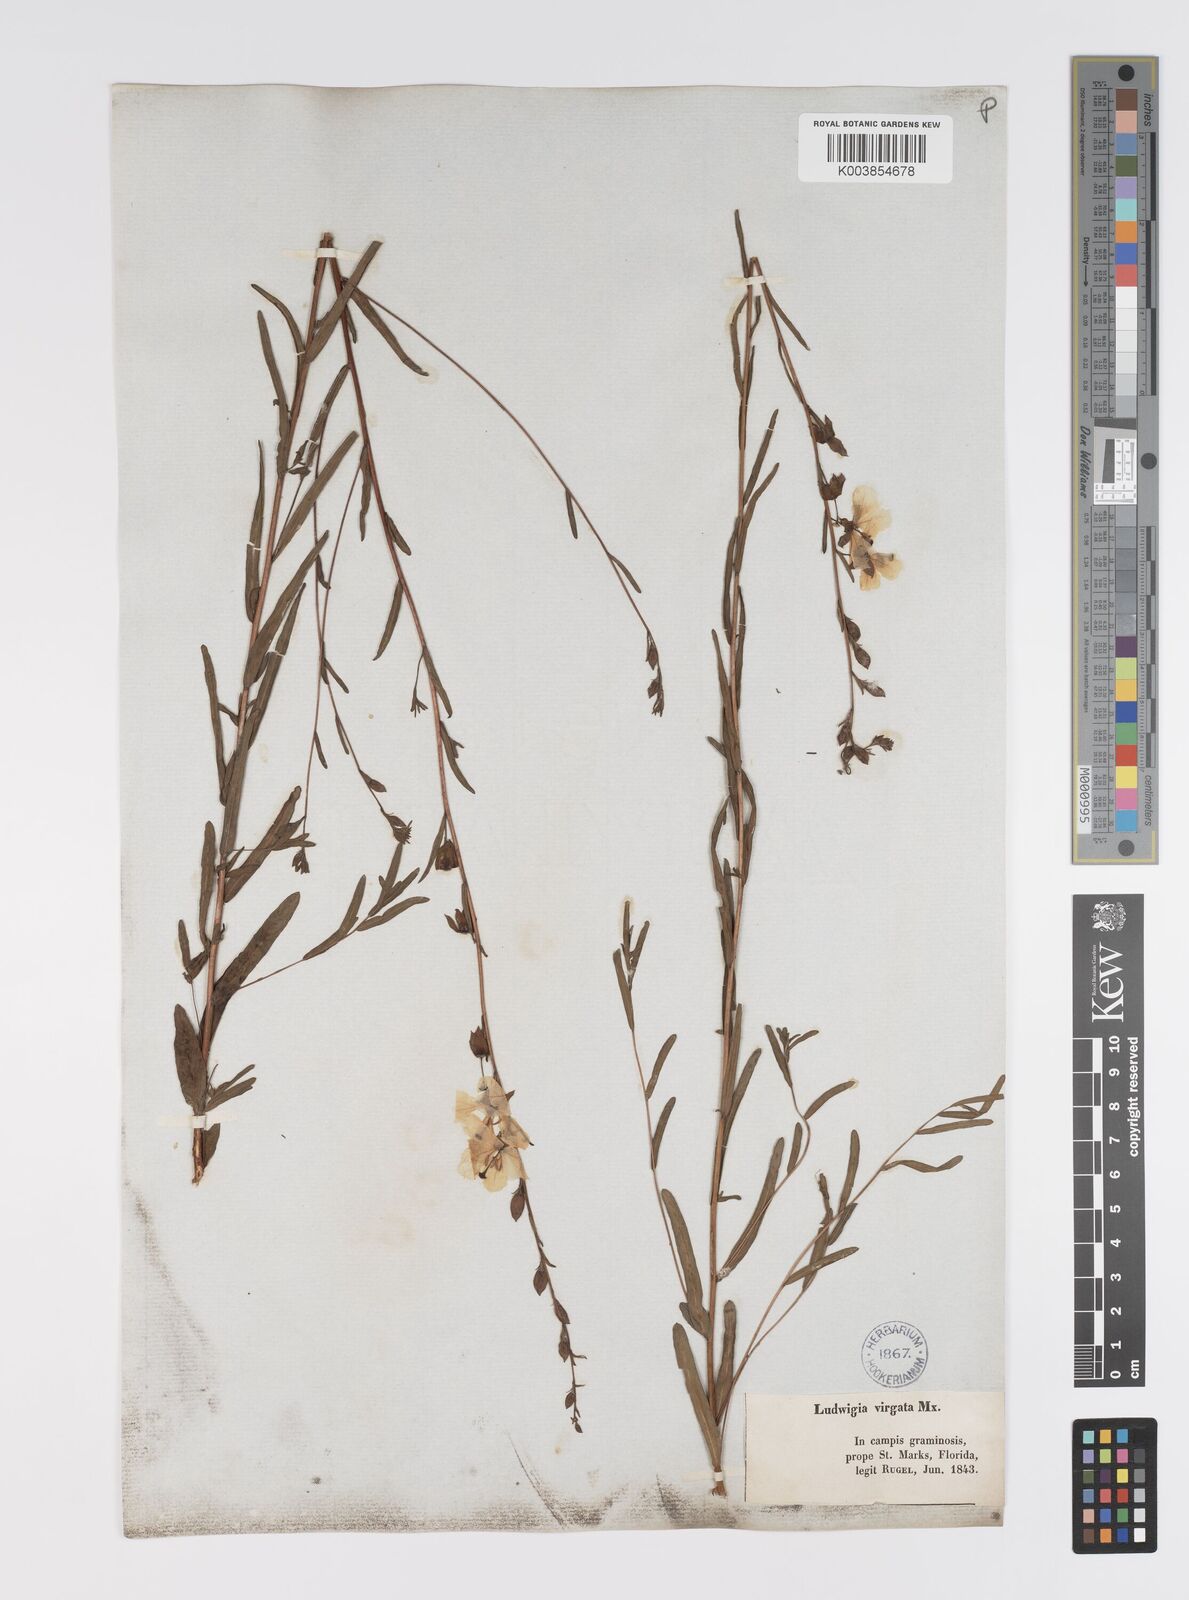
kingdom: Plantae
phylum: Tracheophyta
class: Magnoliopsida
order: Myrtales
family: Onagraceae
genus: Ludwigia
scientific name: Ludwigia virgata
